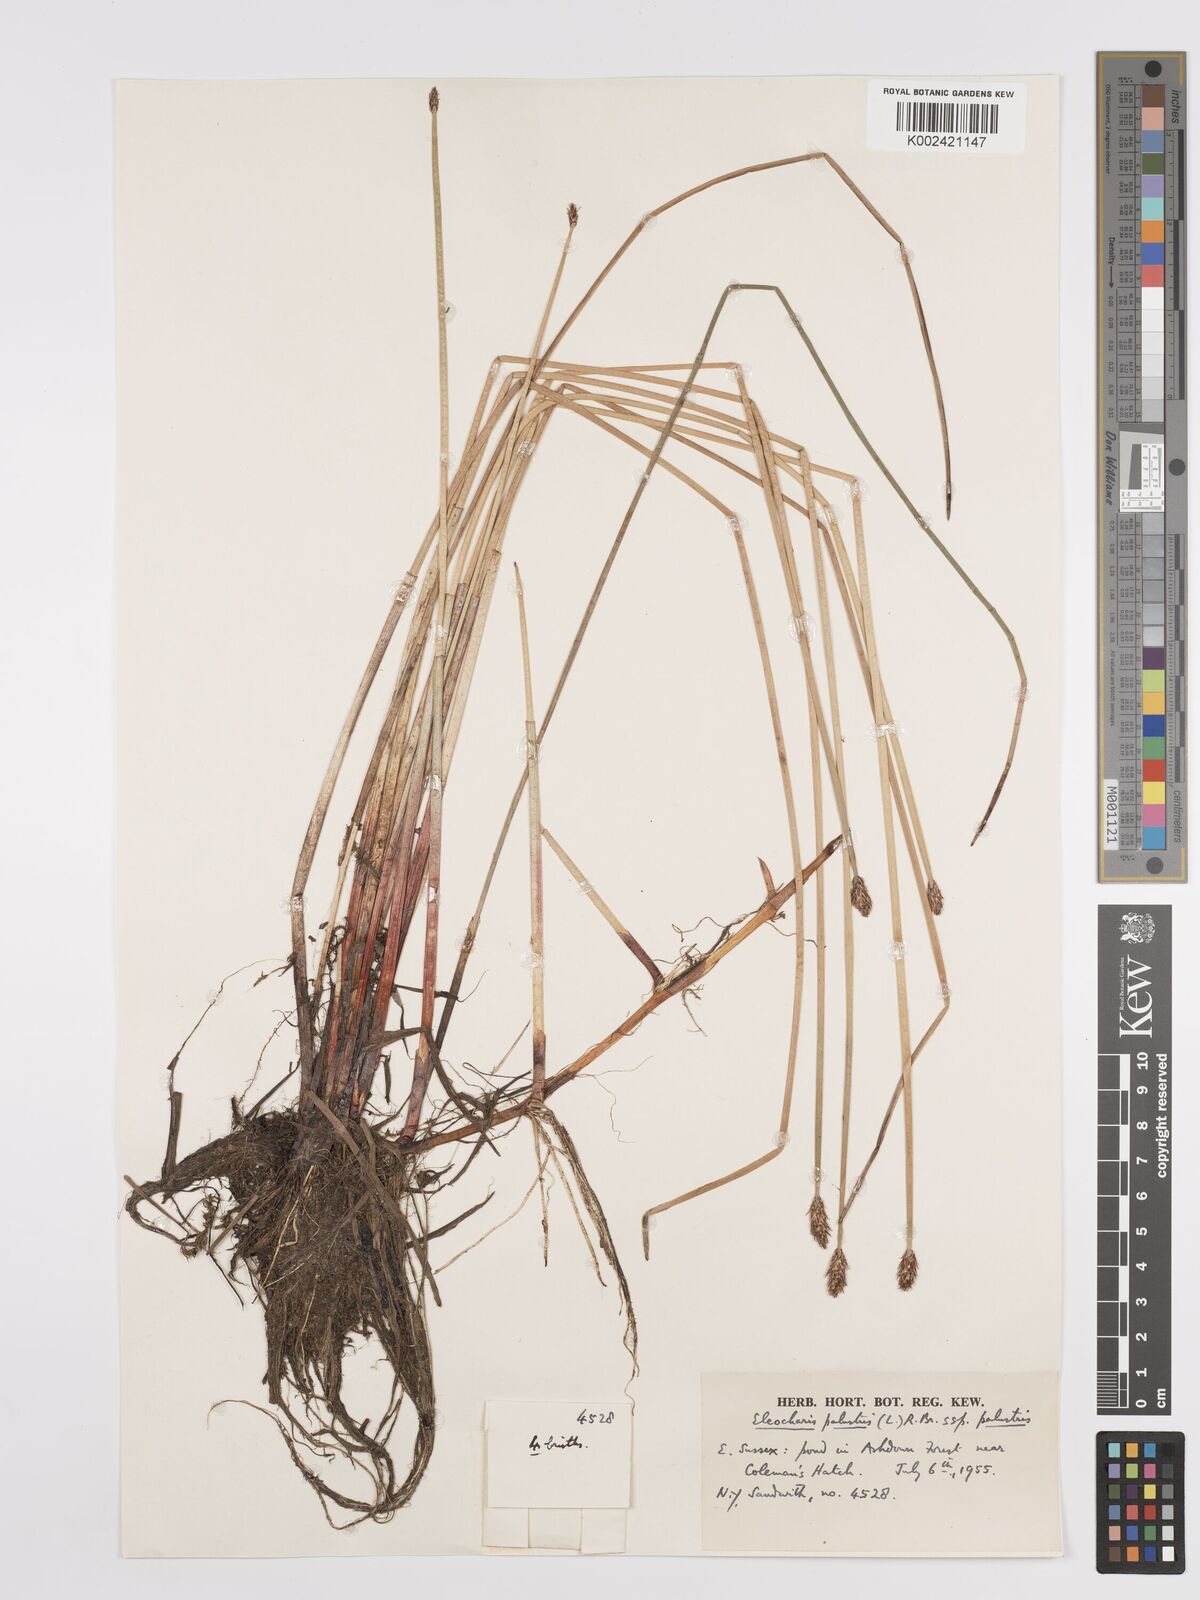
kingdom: Plantae
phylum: Tracheophyta
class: Liliopsida
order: Poales
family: Cyperaceae
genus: Eleocharis
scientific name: Eleocharis palustris
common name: Common spike-rush
